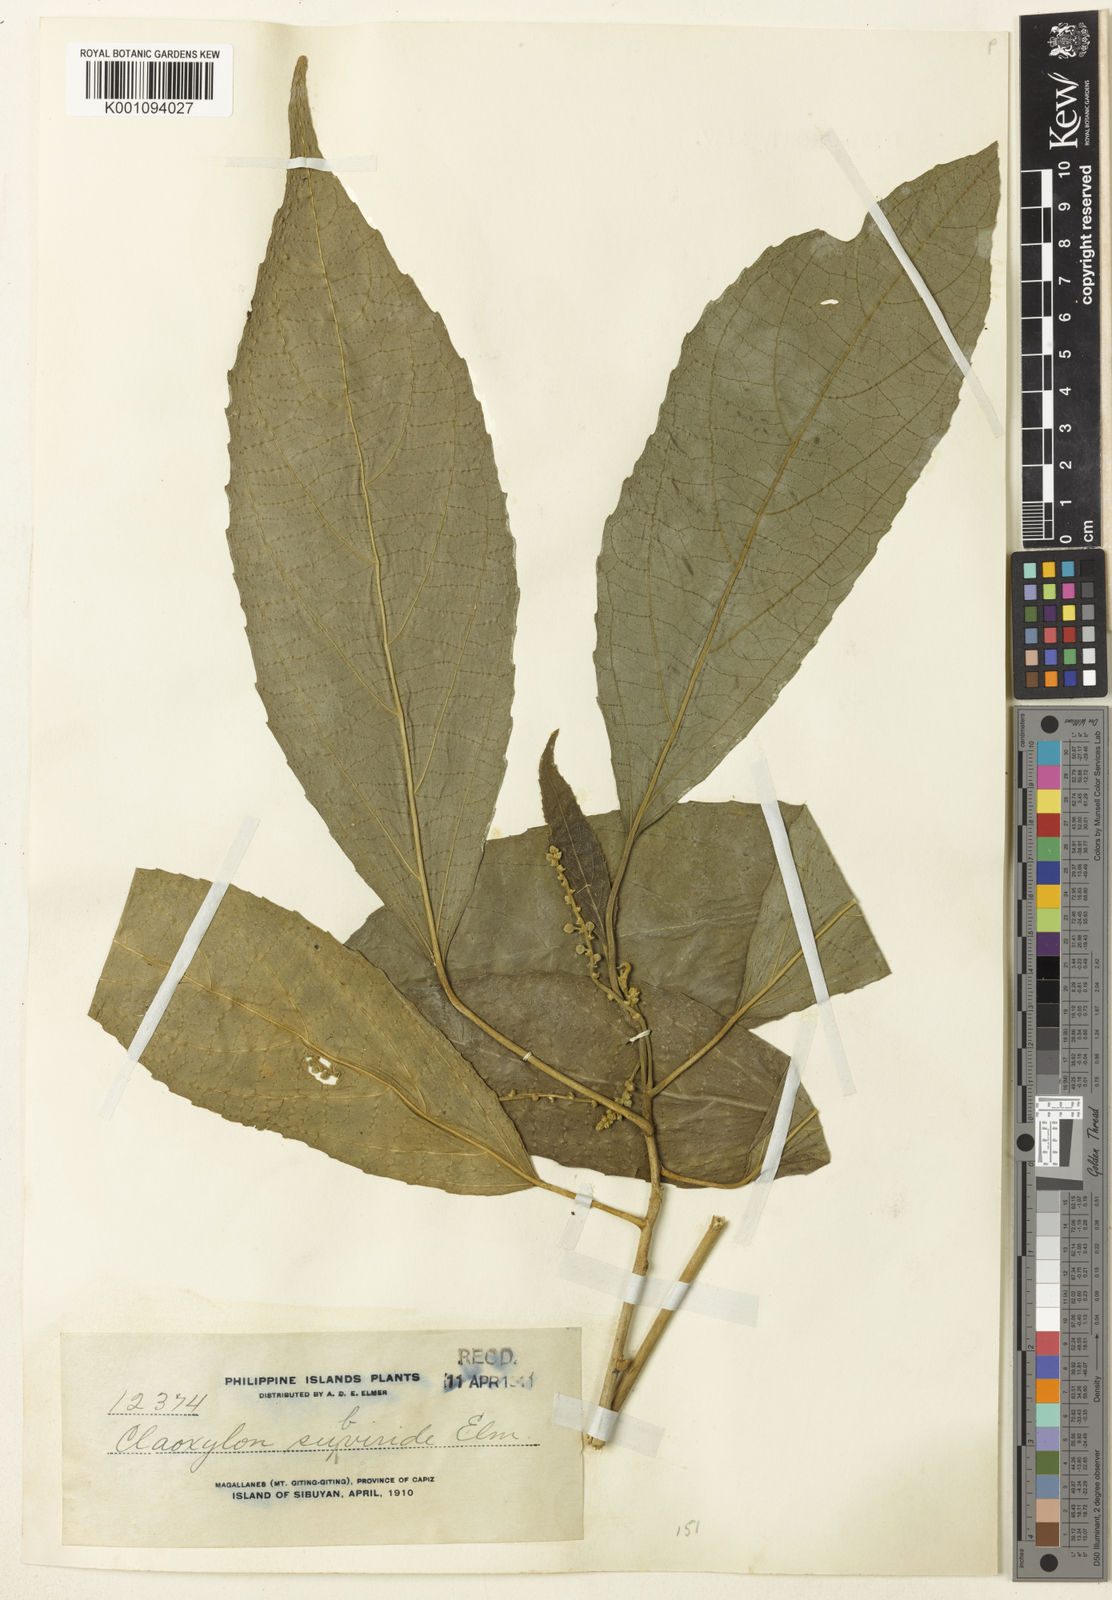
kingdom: Plantae
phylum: Tracheophyta
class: Magnoliopsida
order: Malpighiales
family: Euphorbiaceae
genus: Claoxylon
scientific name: Claoxylon subviride
